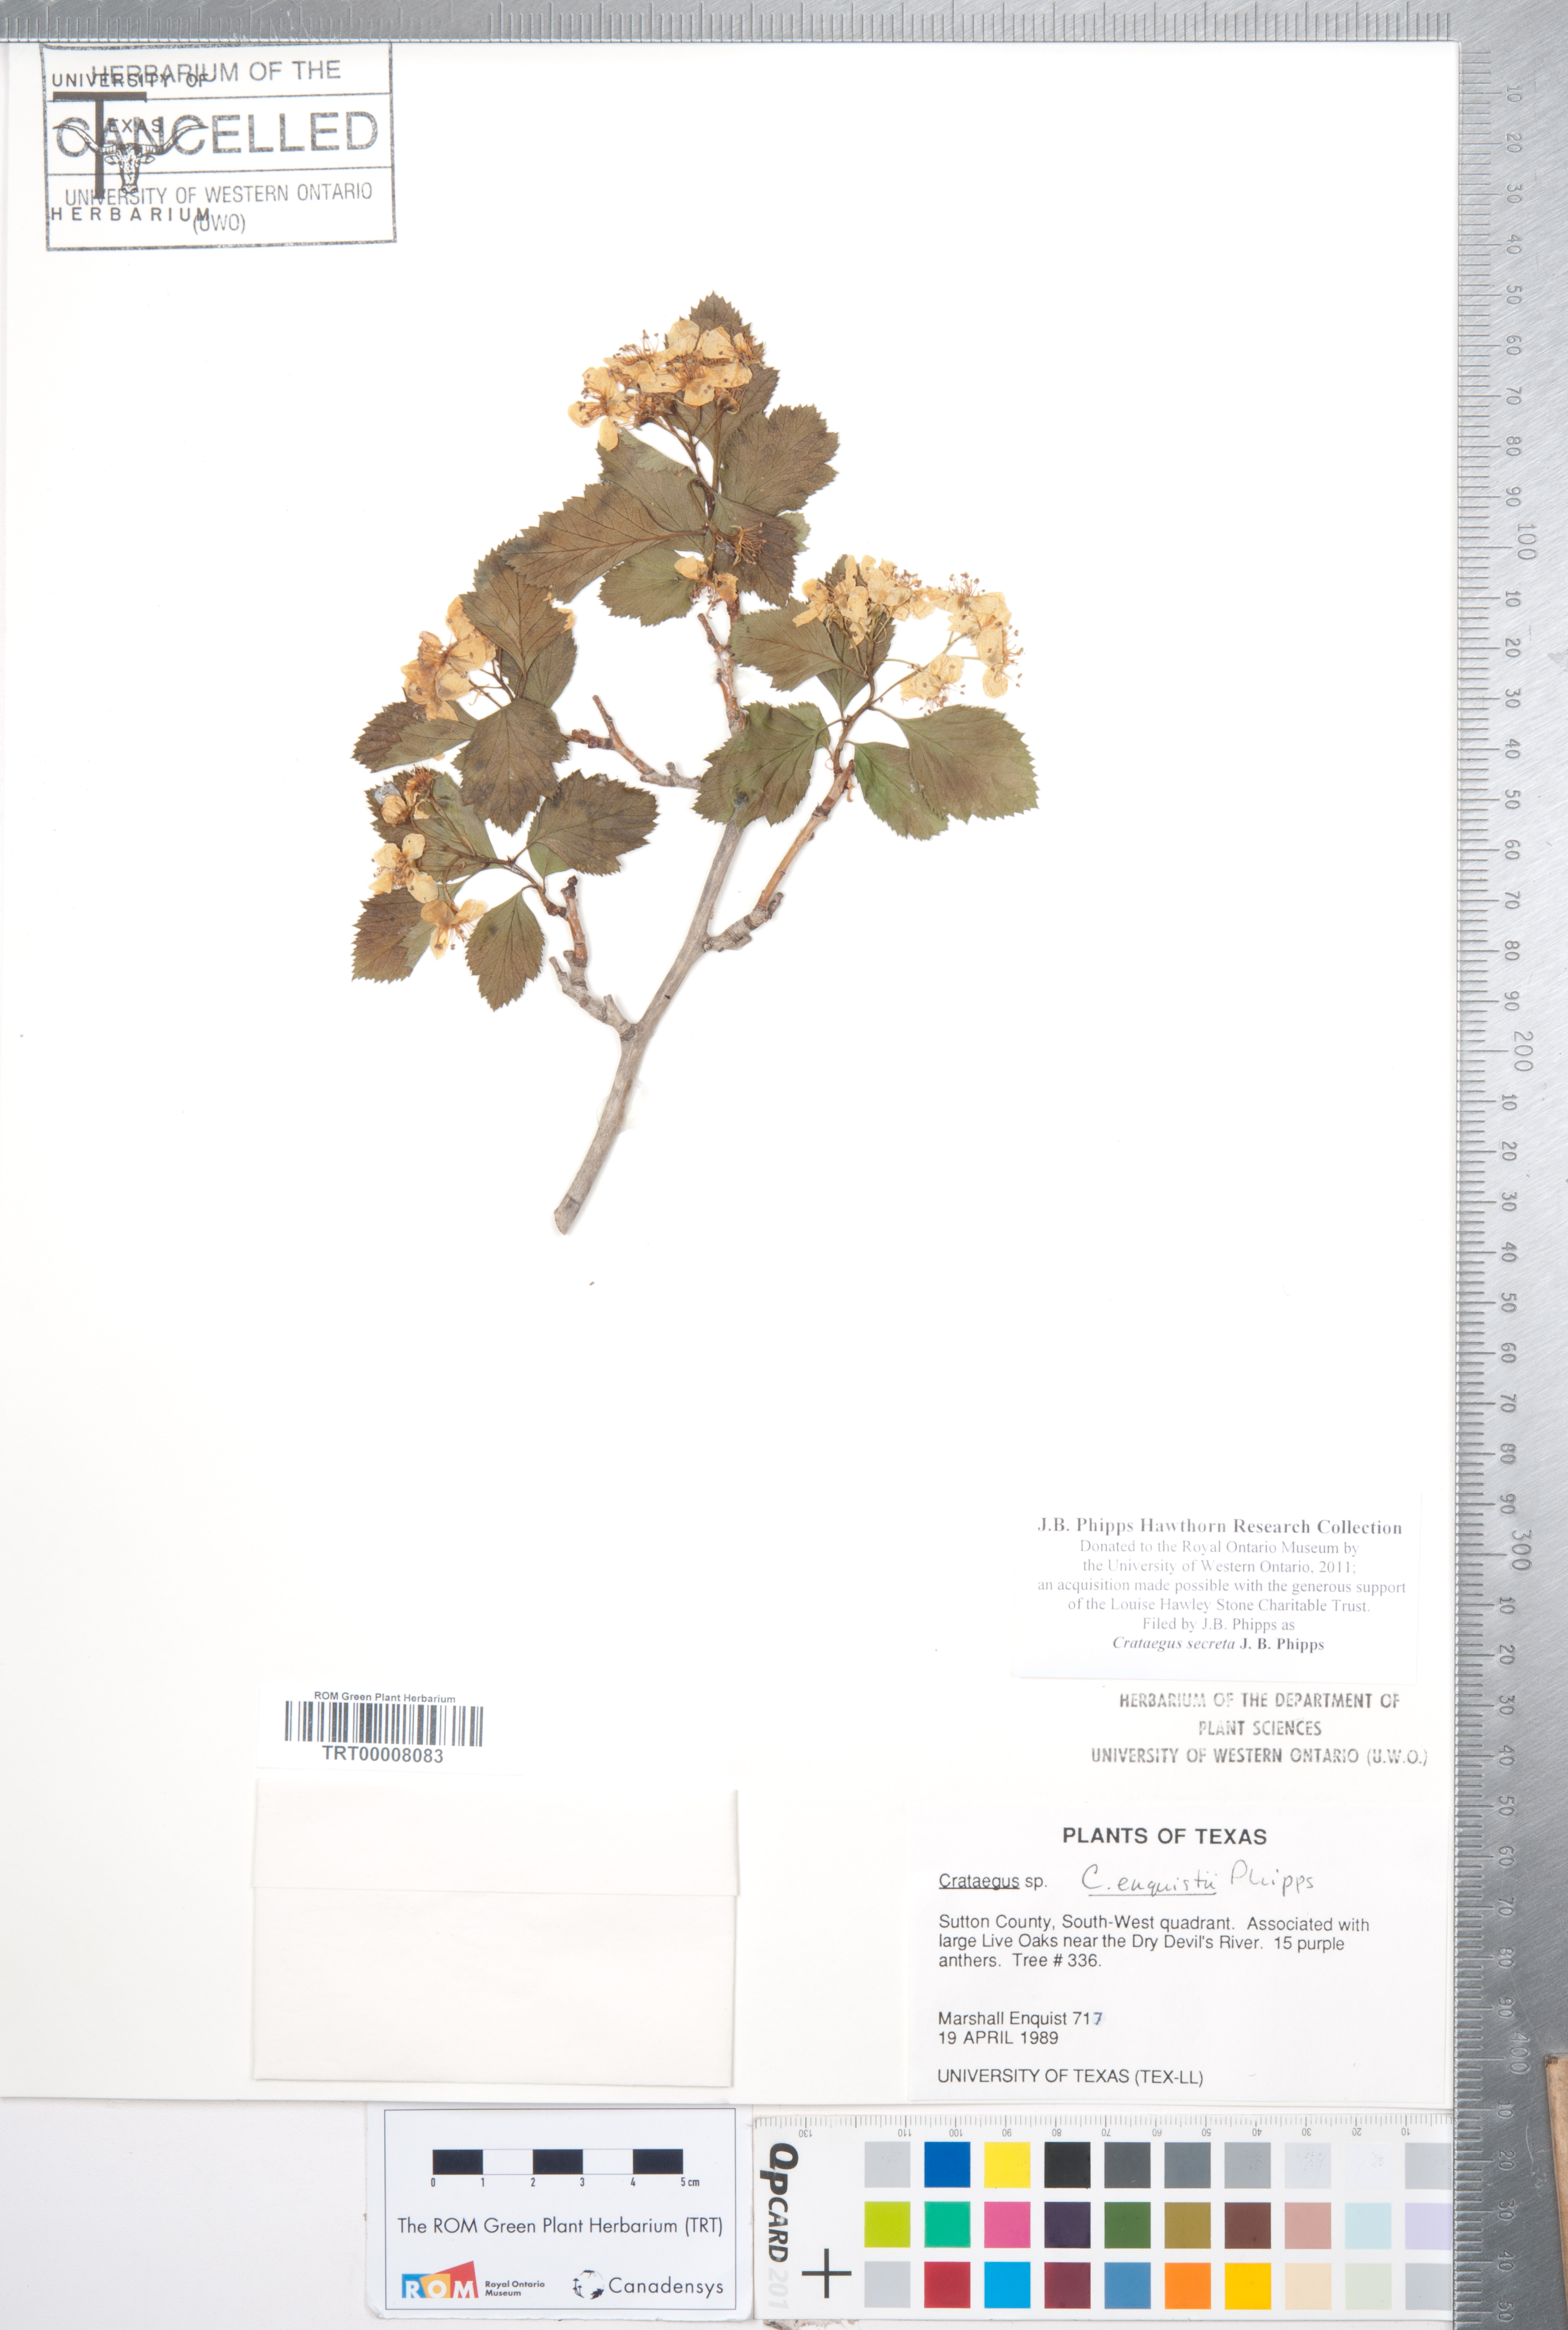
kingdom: Plantae
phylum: Tracheophyta
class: Magnoliopsida
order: Rosales
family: Rosaceae
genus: Crataegus
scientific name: Crataegus turnerorum
